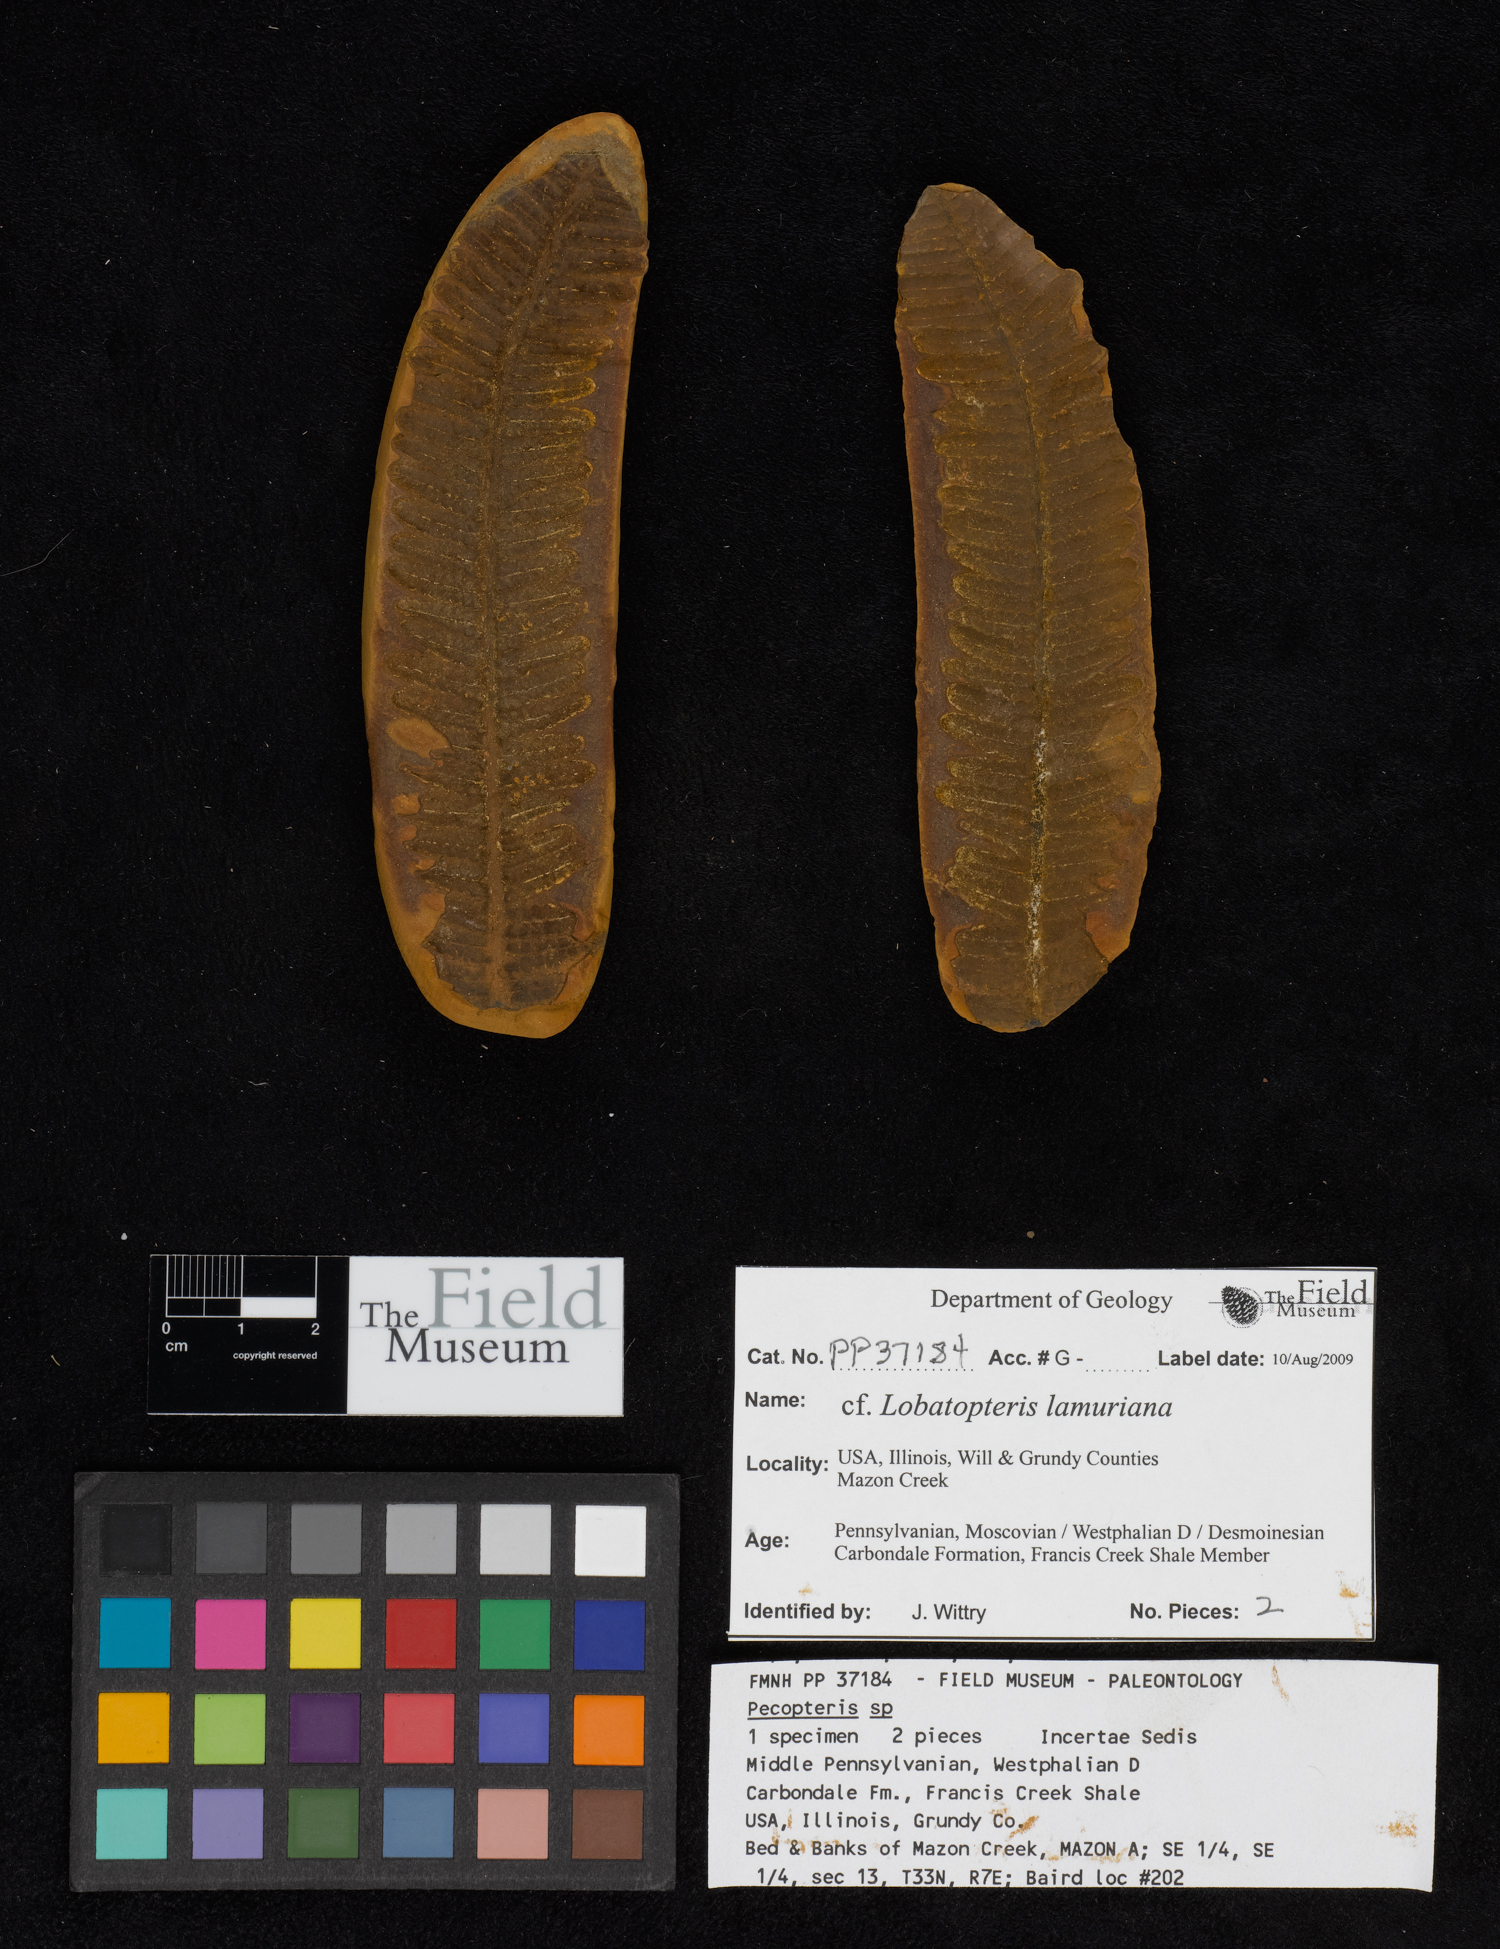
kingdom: Plantae
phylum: Tracheophyta
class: Polypodiopsida
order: Marattiales
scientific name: Marattiales
